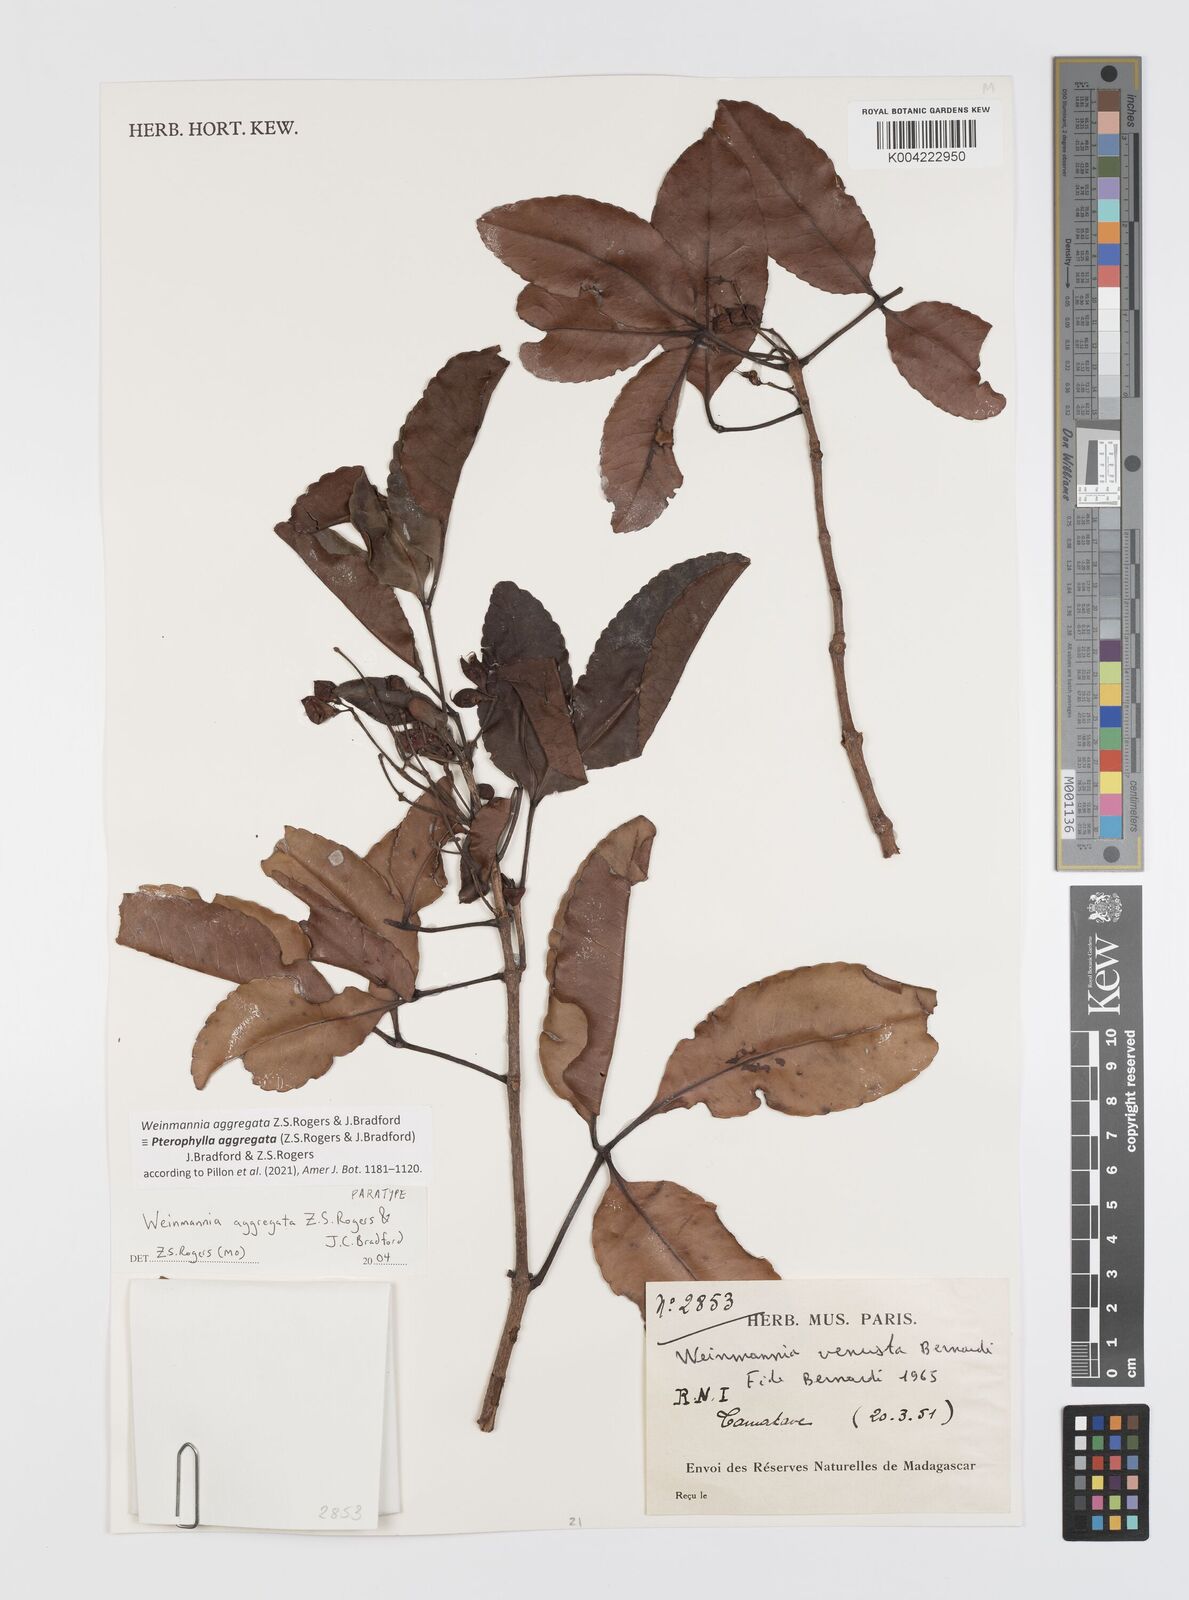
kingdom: Plantae
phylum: Tracheophyta
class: Magnoliopsida
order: Oxalidales
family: Cunoniaceae
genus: Pterophylla
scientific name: Pterophylla aggregata
